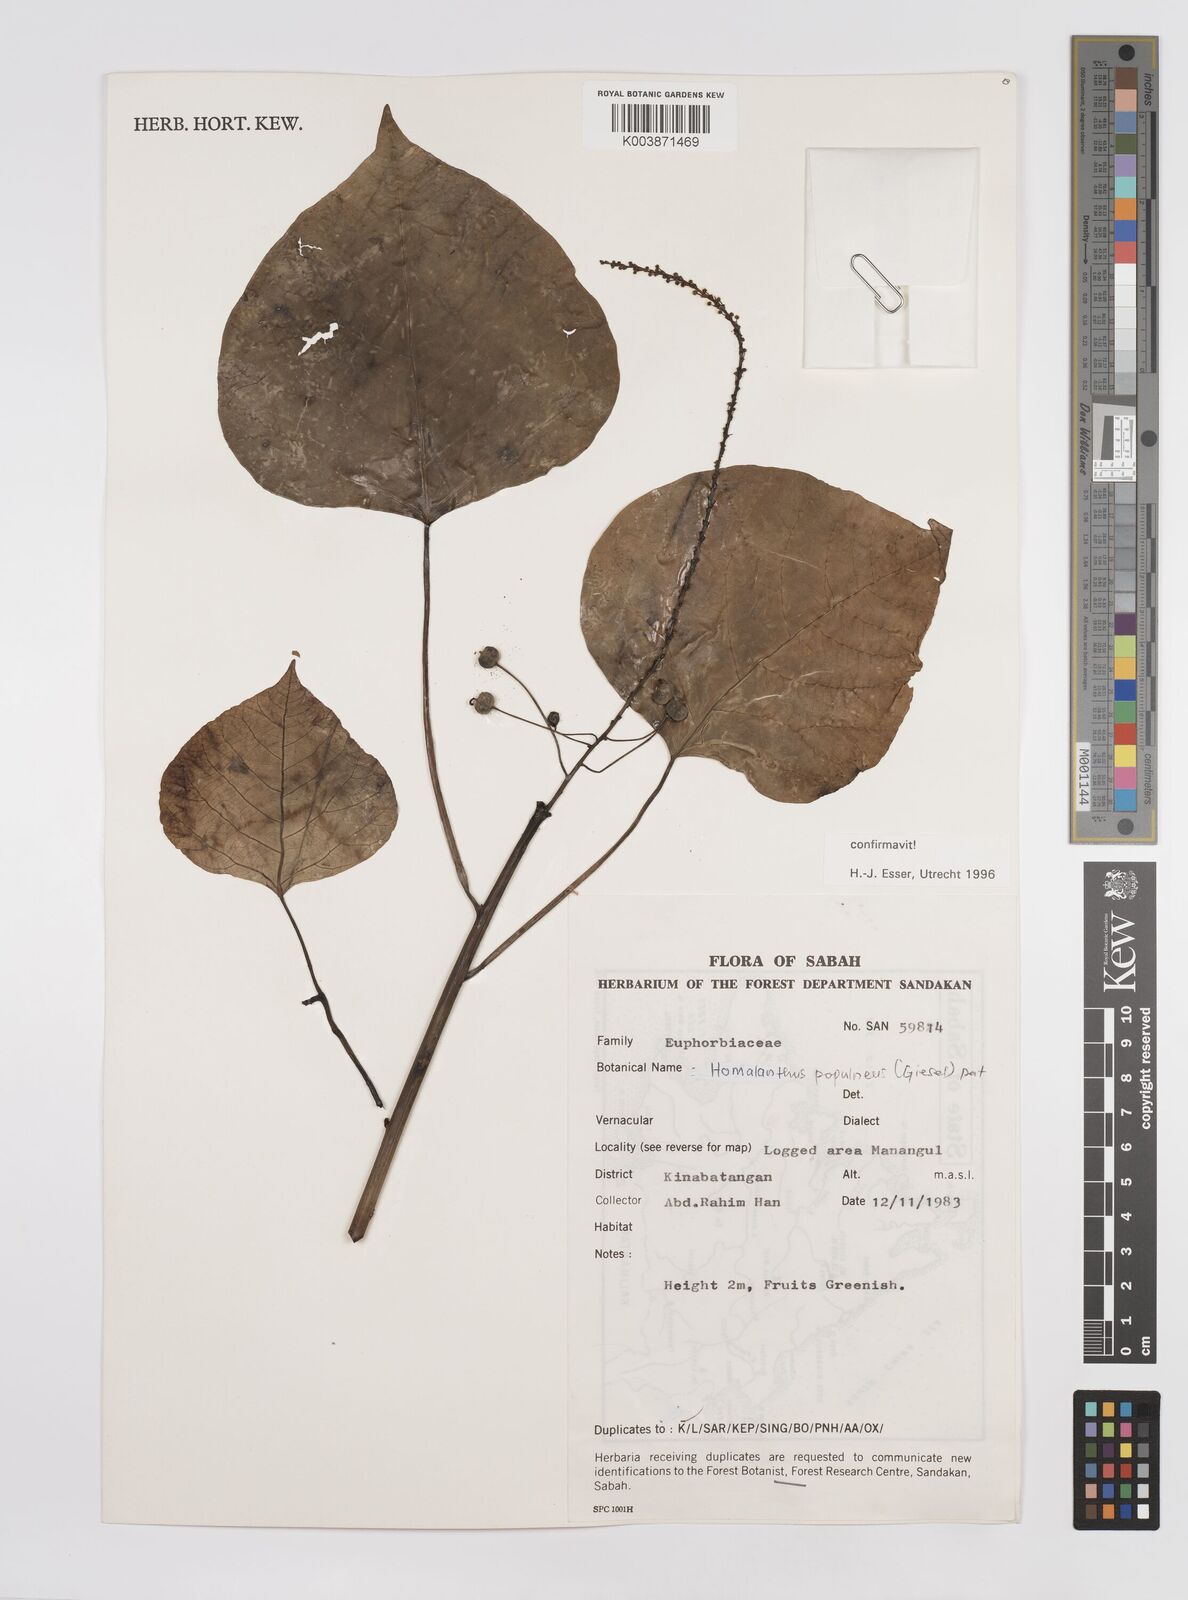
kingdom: Plantae
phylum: Tracheophyta
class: Magnoliopsida
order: Malpighiales
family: Euphorbiaceae
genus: Homalanthus
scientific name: Homalanthus populneus
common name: Spurge
